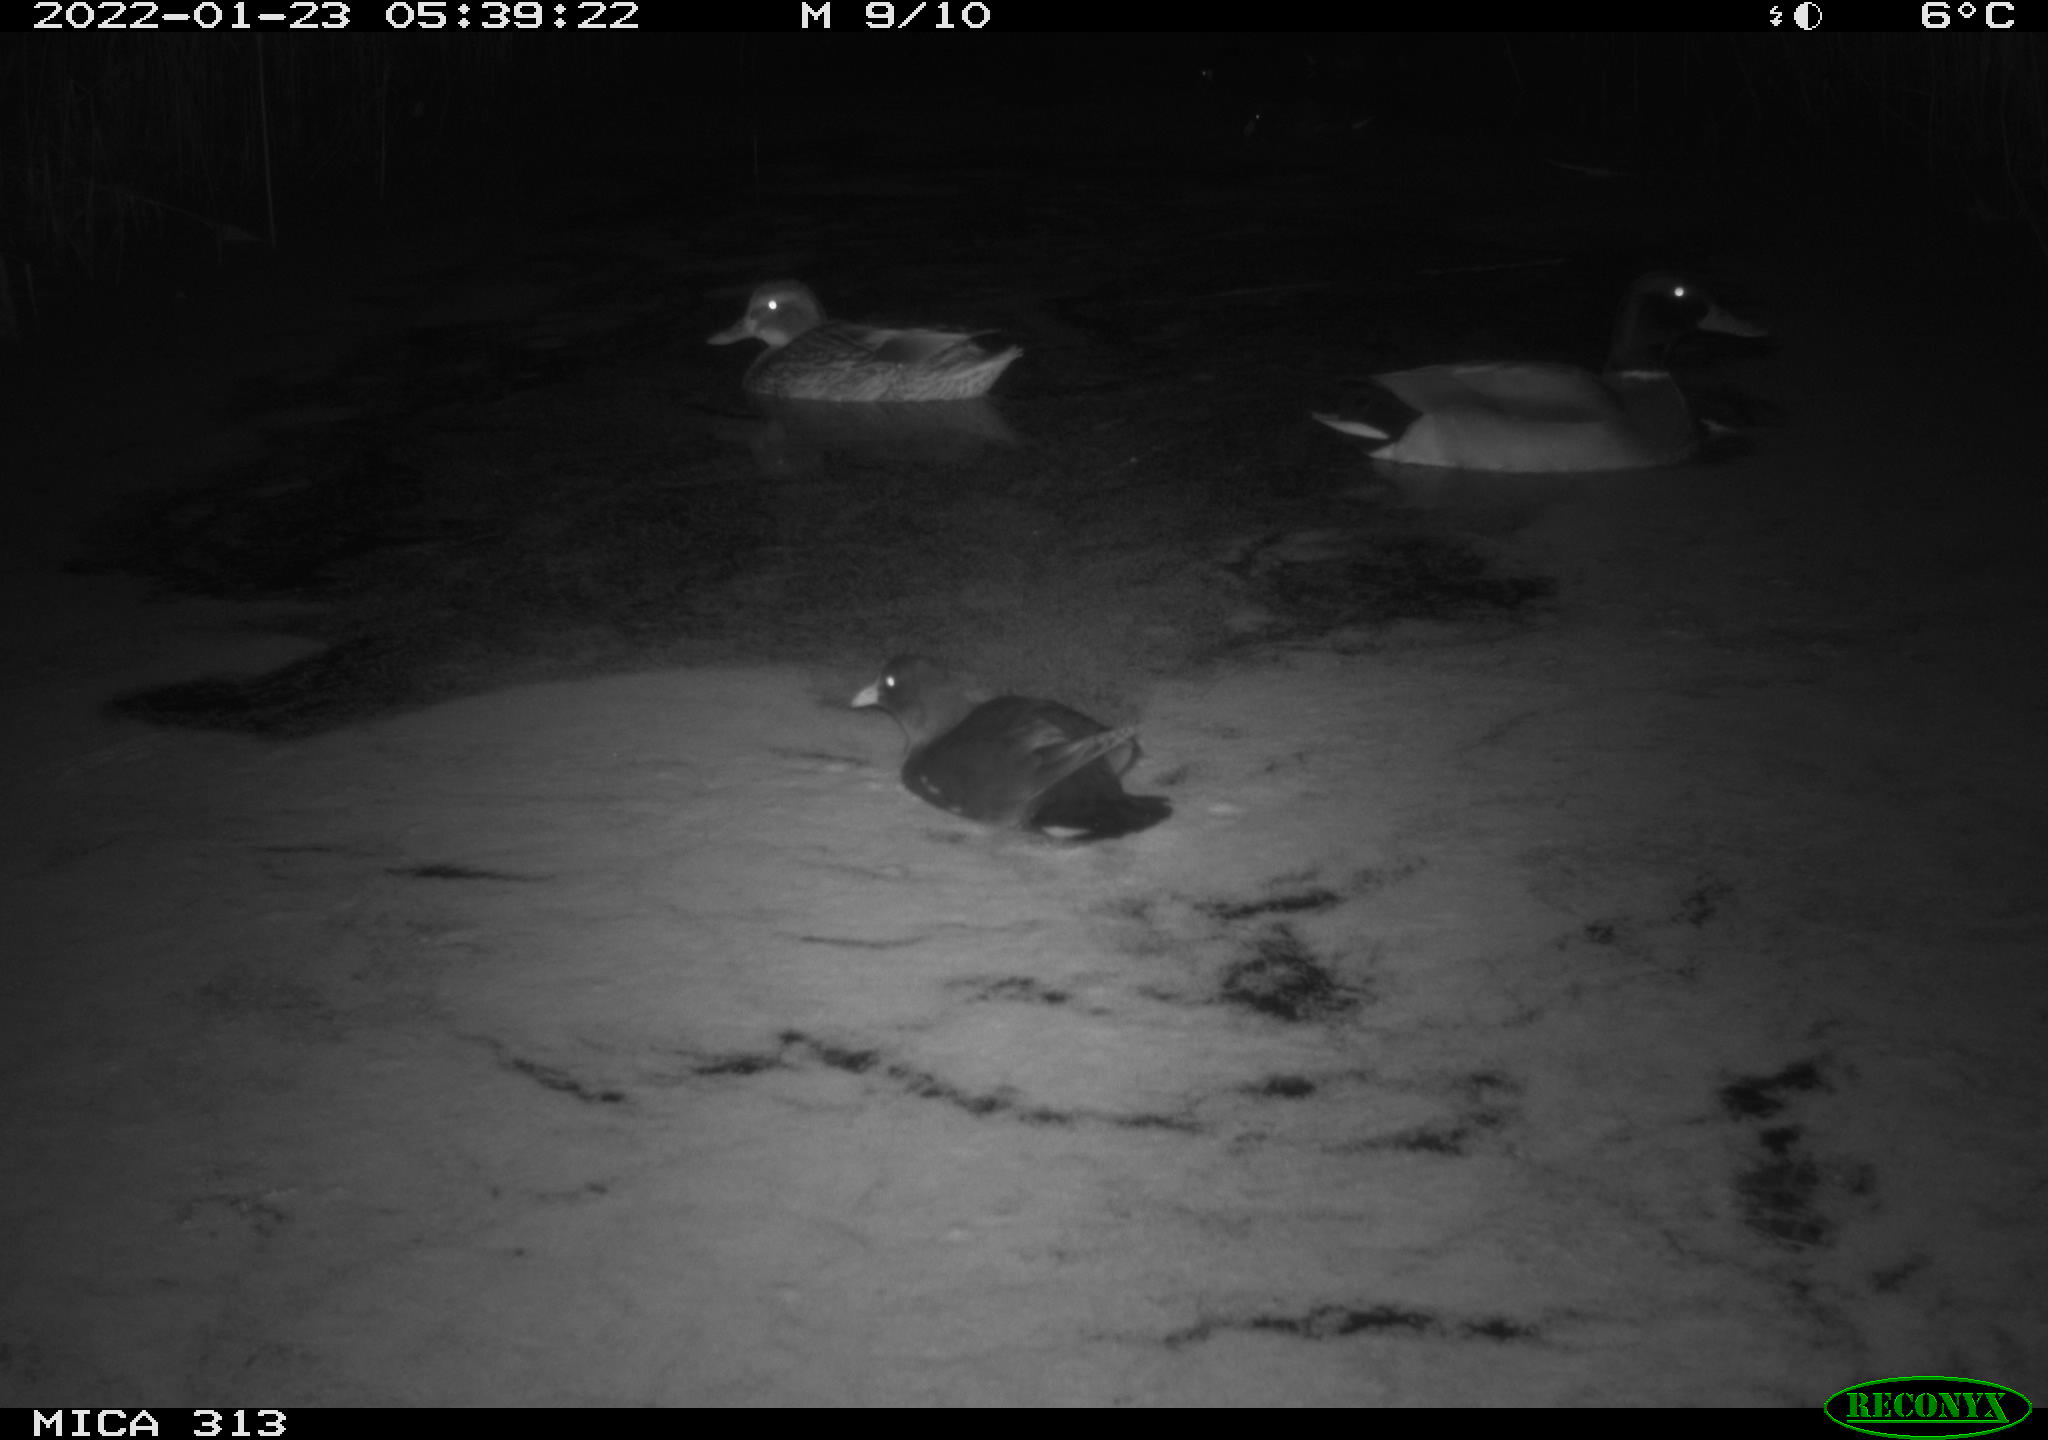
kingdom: Animalia
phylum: Chordata
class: Aves
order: Anseriformes
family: Anatidae
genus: Anas
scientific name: Anas
